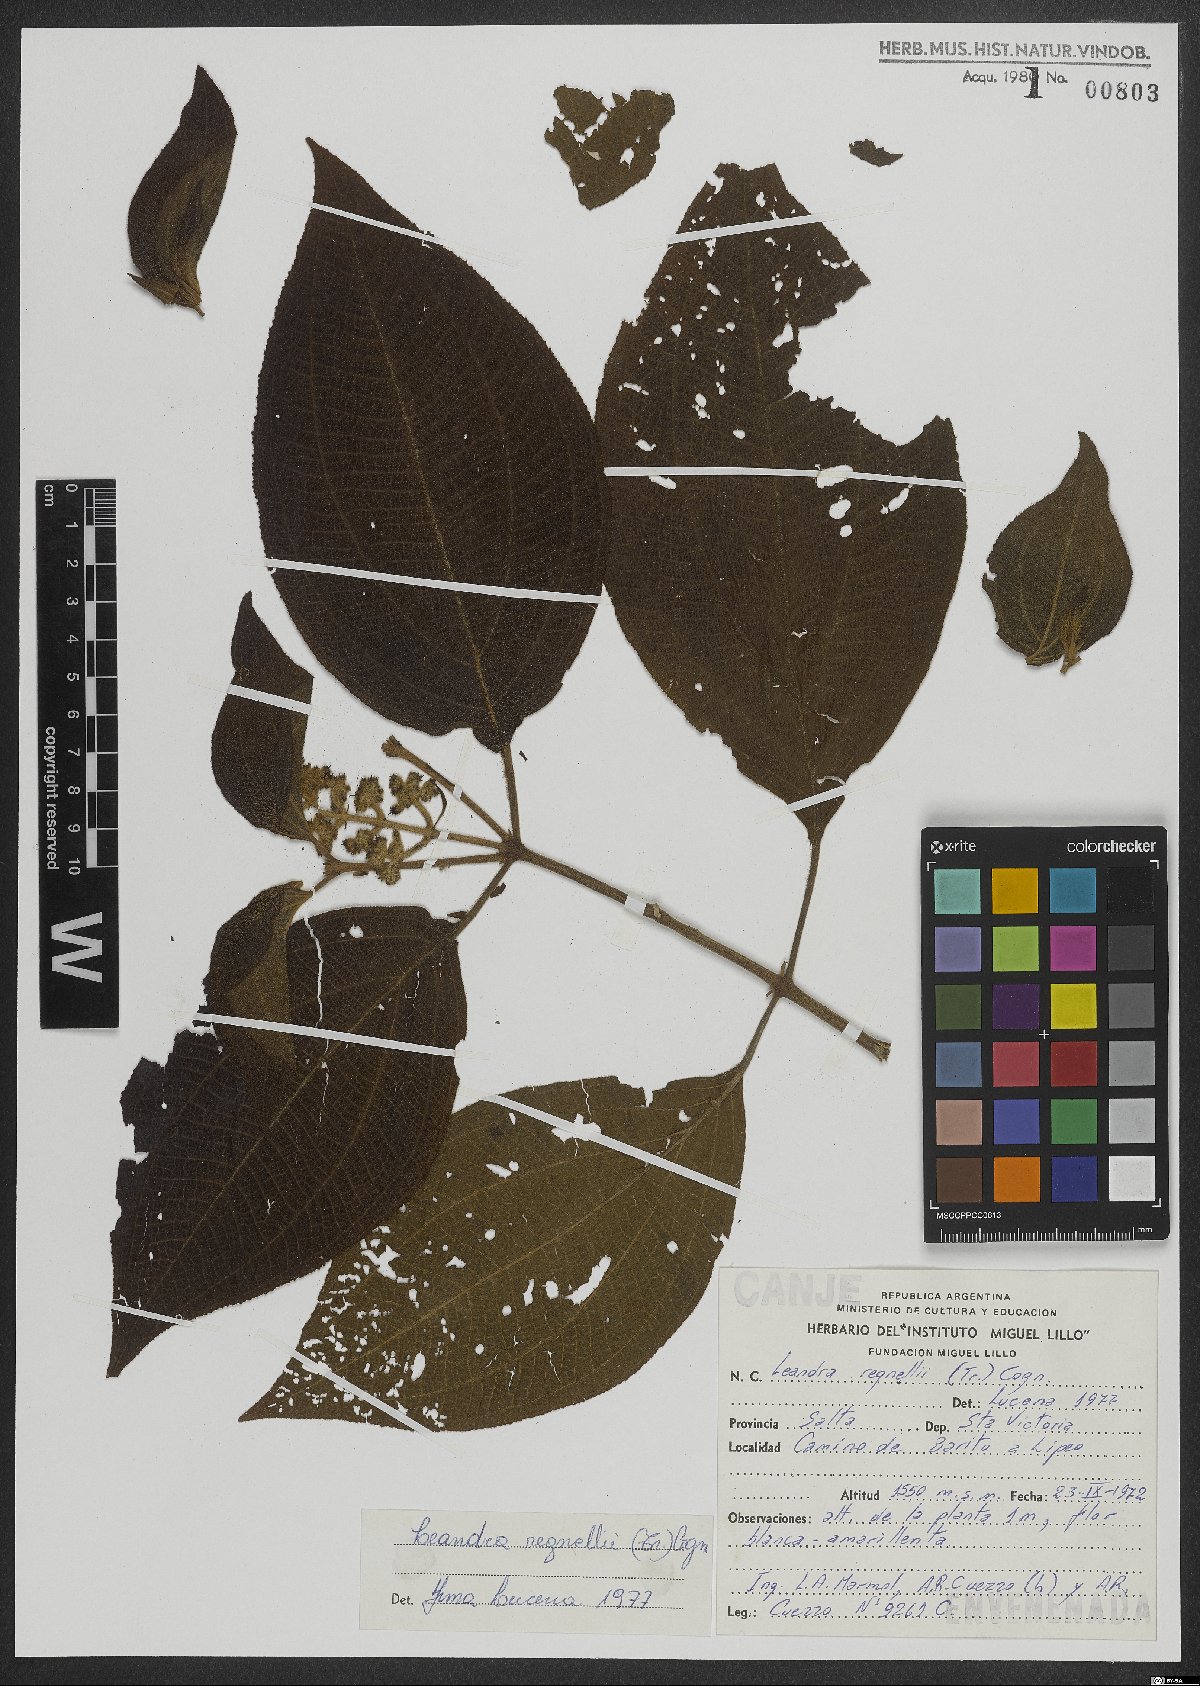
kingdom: Plantae
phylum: Tracheophyta
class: Magnoliopsida
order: Myrtales
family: Melastomataceae
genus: Miconia
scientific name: Miconia alterninervia
